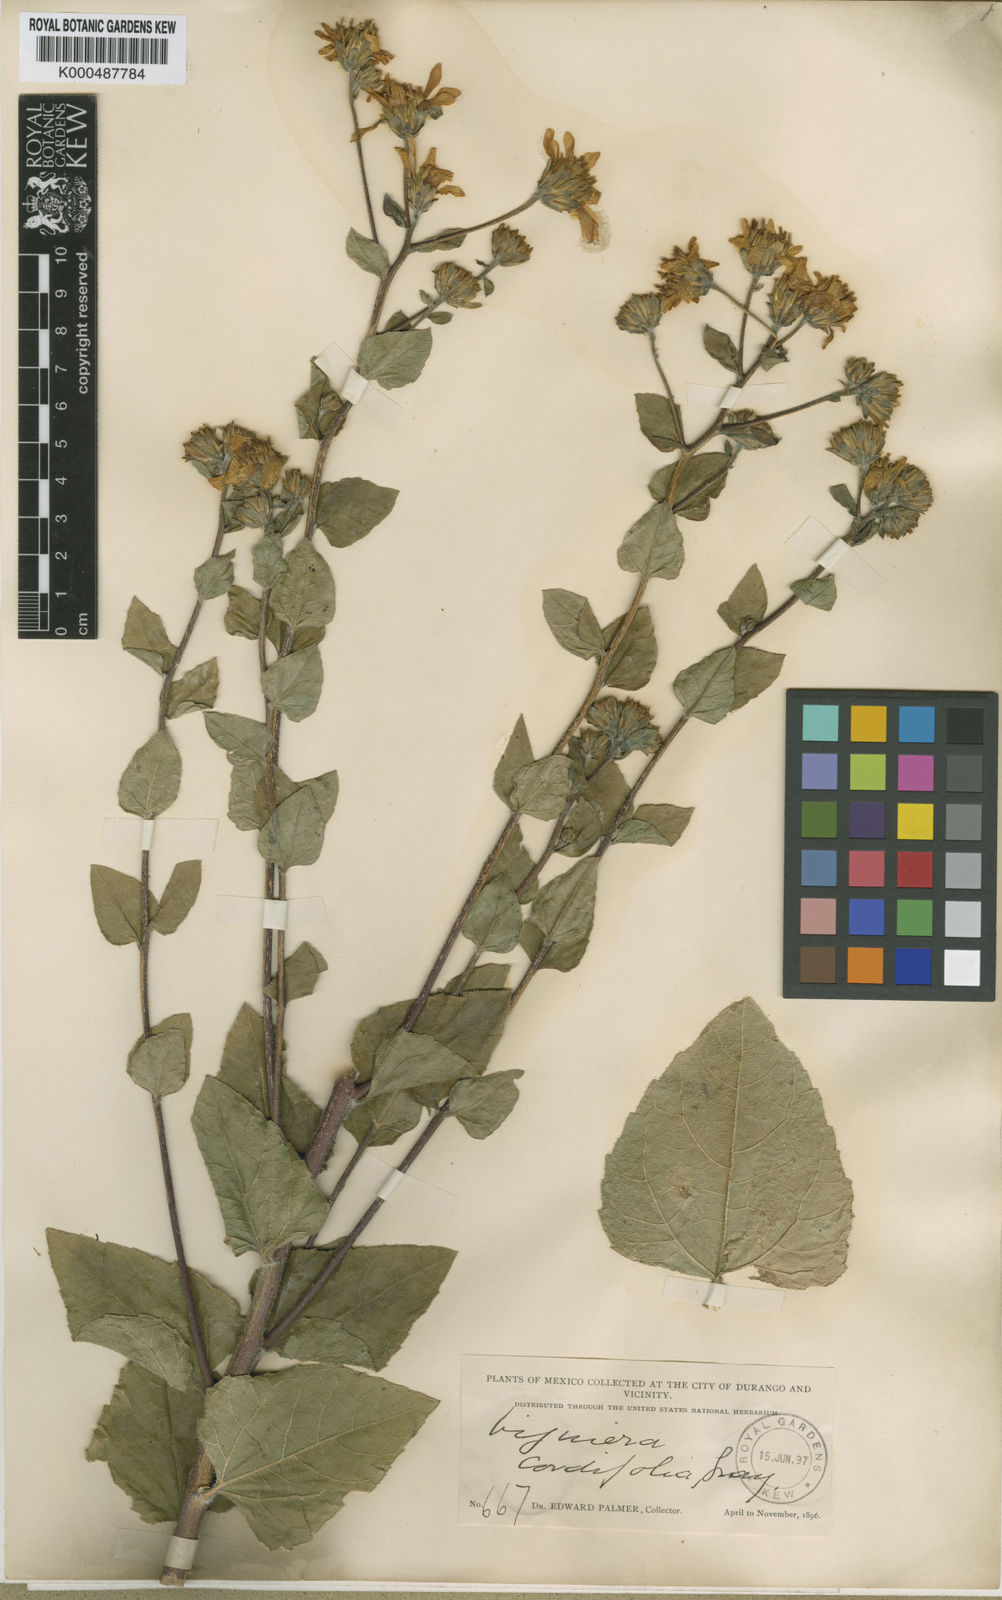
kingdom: Plantae
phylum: Tracheophyta
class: Magnoliopsida
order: Asterales
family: Asteraceae
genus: Aldama
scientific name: Aldama cordifolia
